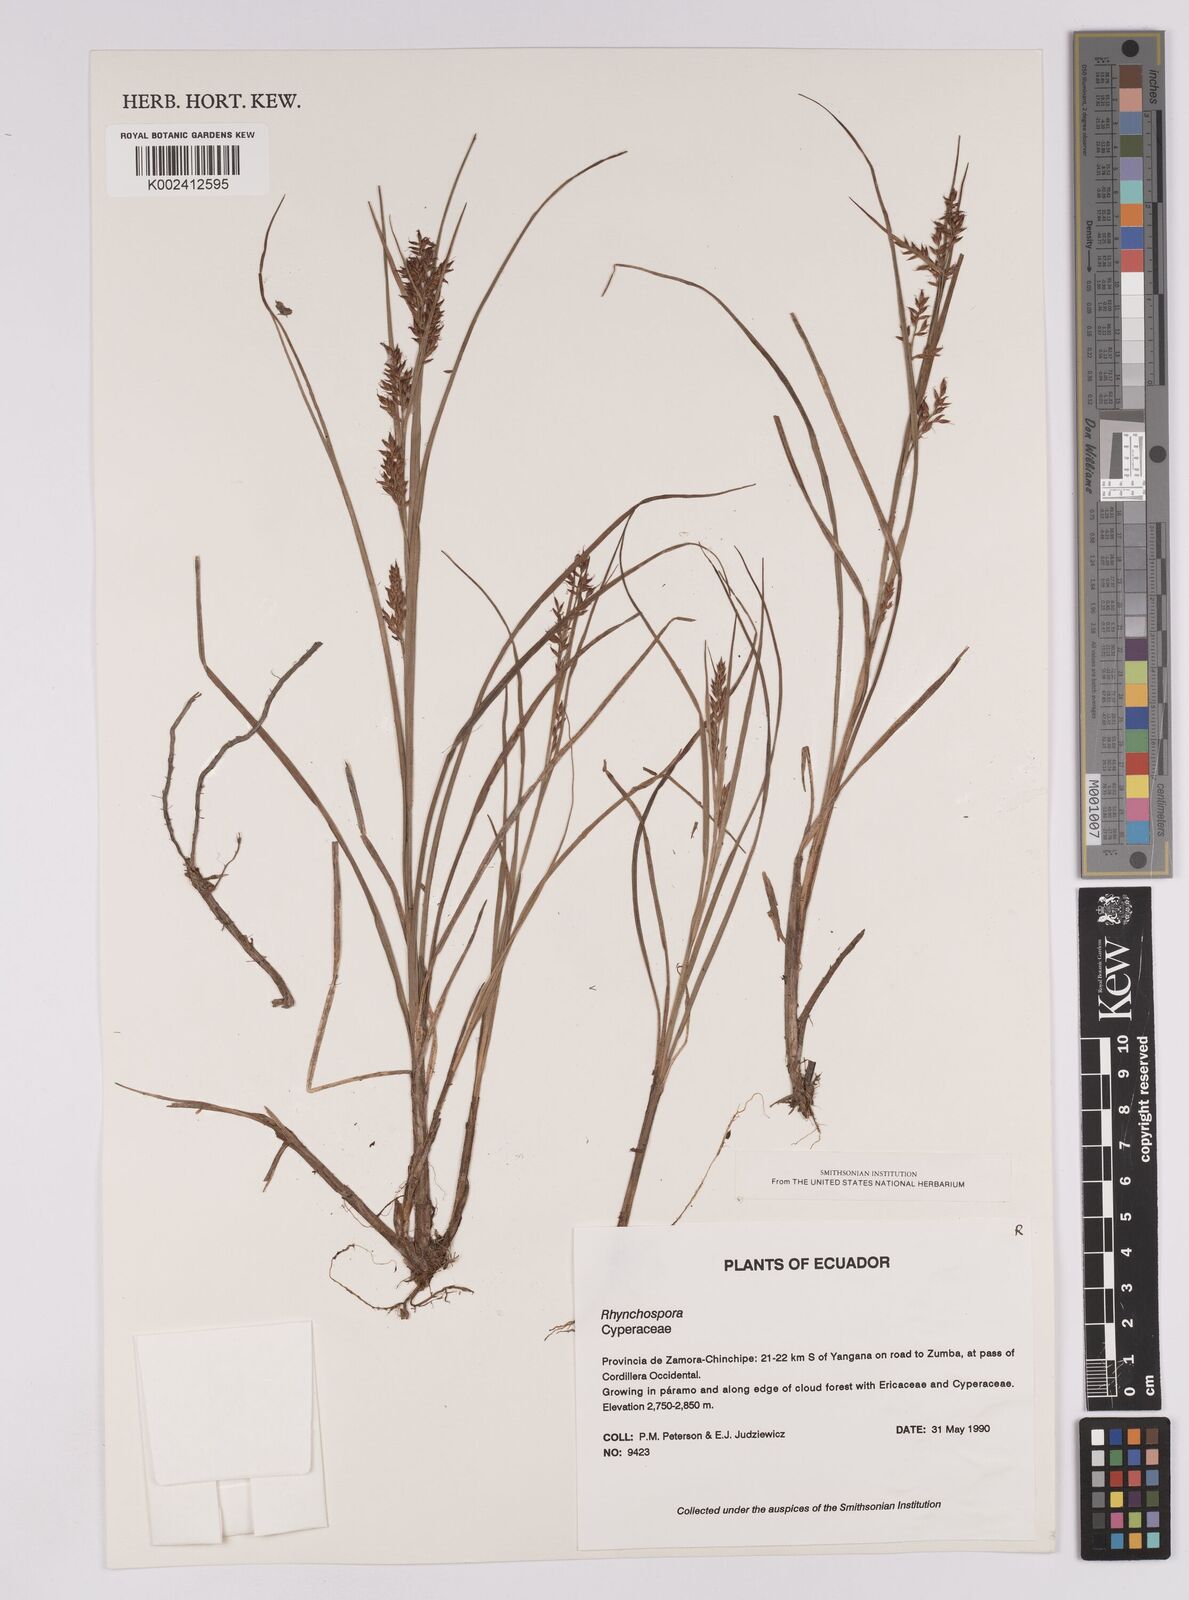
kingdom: Plantae
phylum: Tracheophyta
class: Liliopsida
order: Poales
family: Cyperaceae
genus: Rhynchospora
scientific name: Rhynchospora
